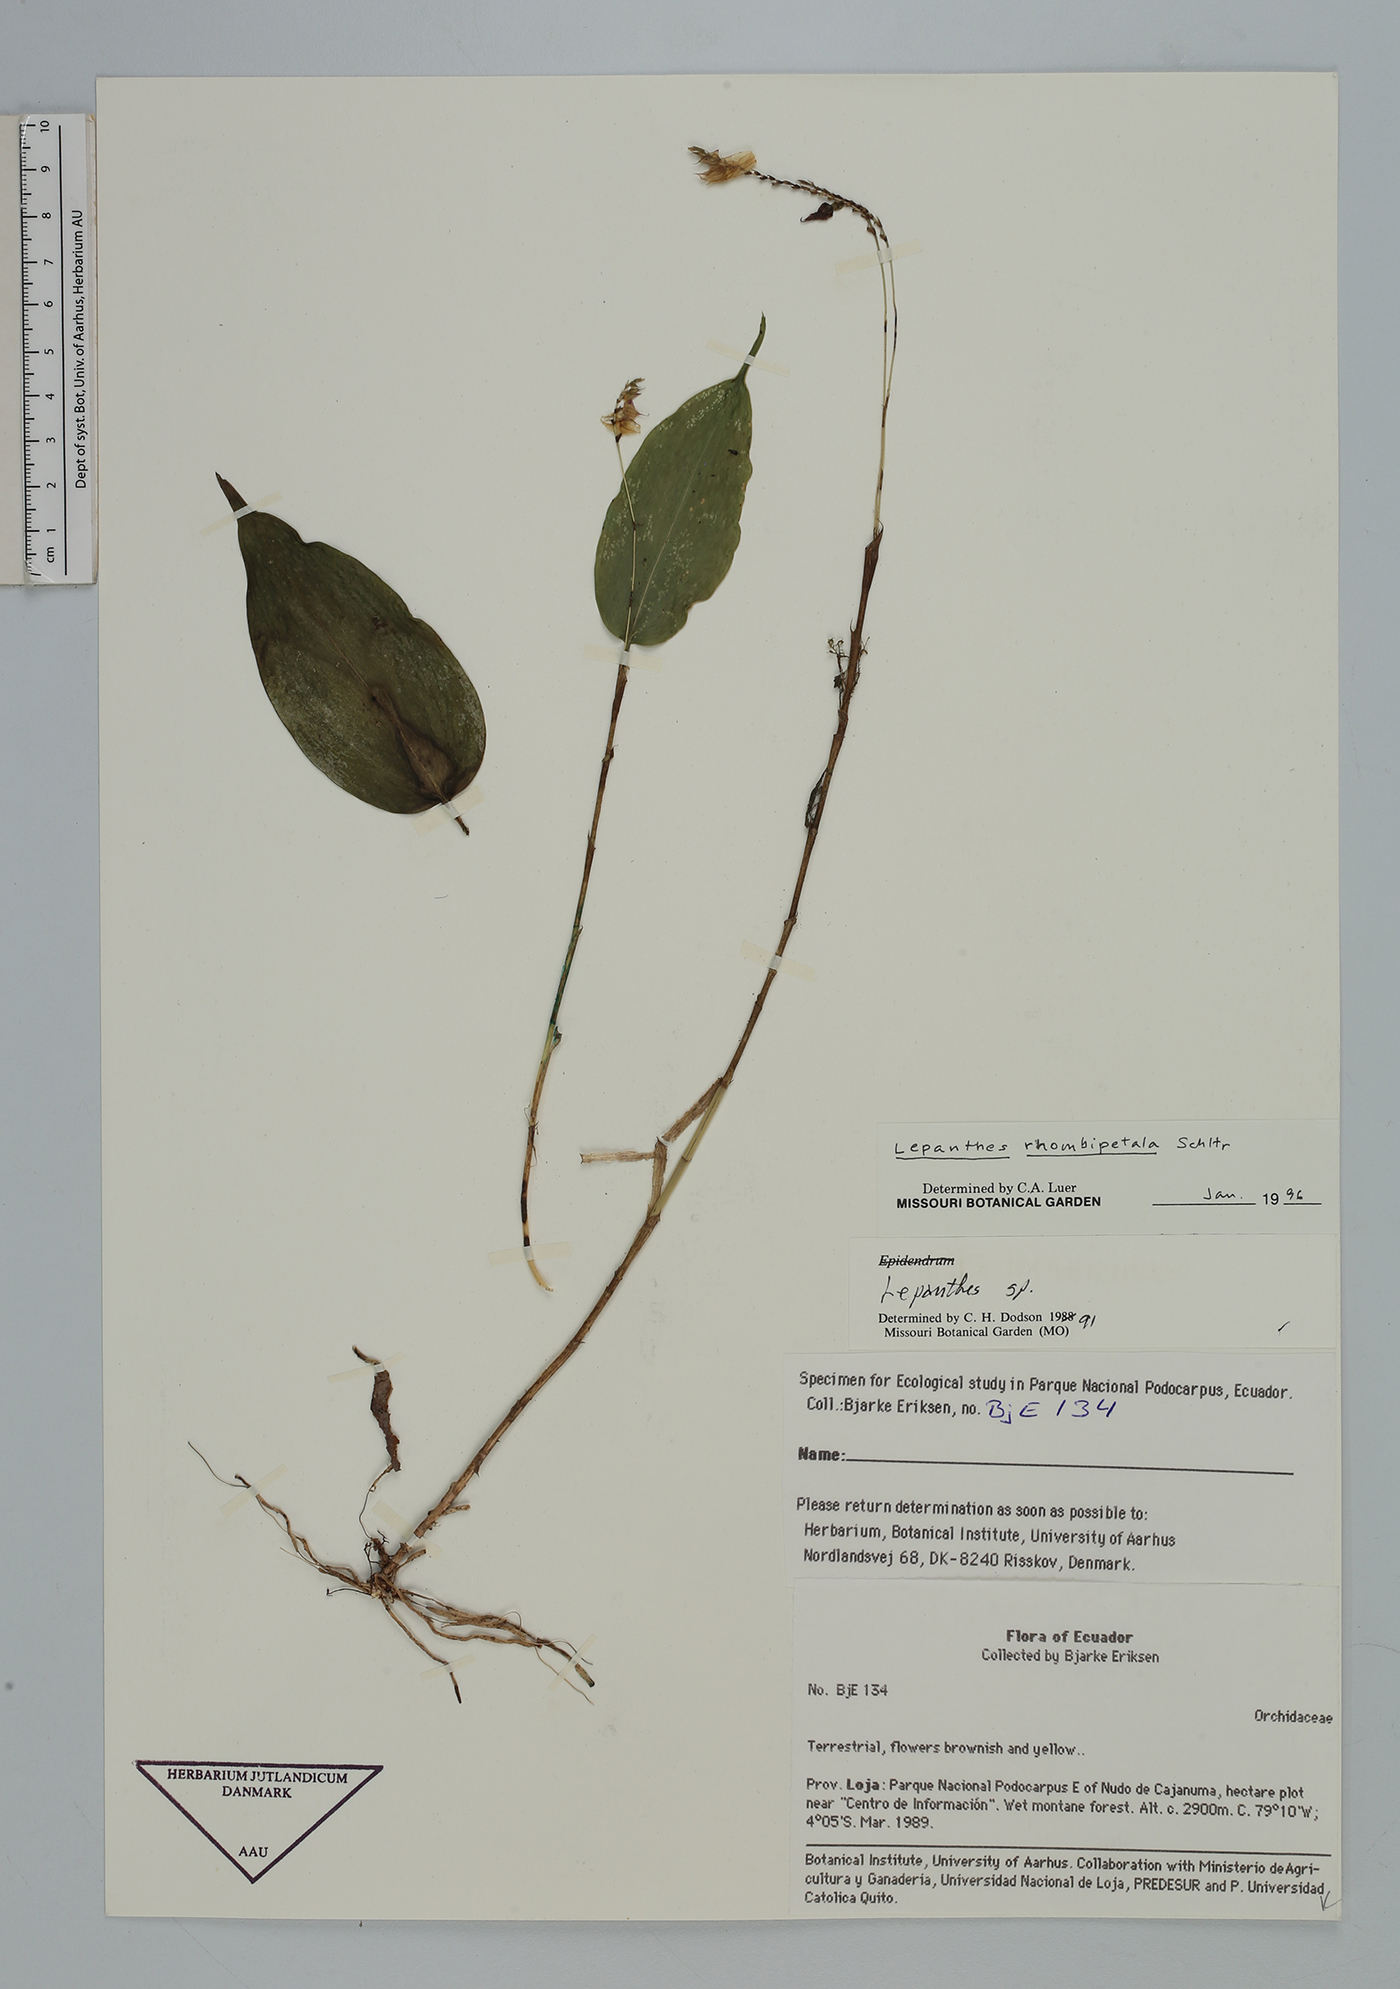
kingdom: Plantae
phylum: Tracheophyta
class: Liliopsida
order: Asparagales
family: Orchidaceae
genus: Lepanthes
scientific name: Lepanthes rhombipetala
